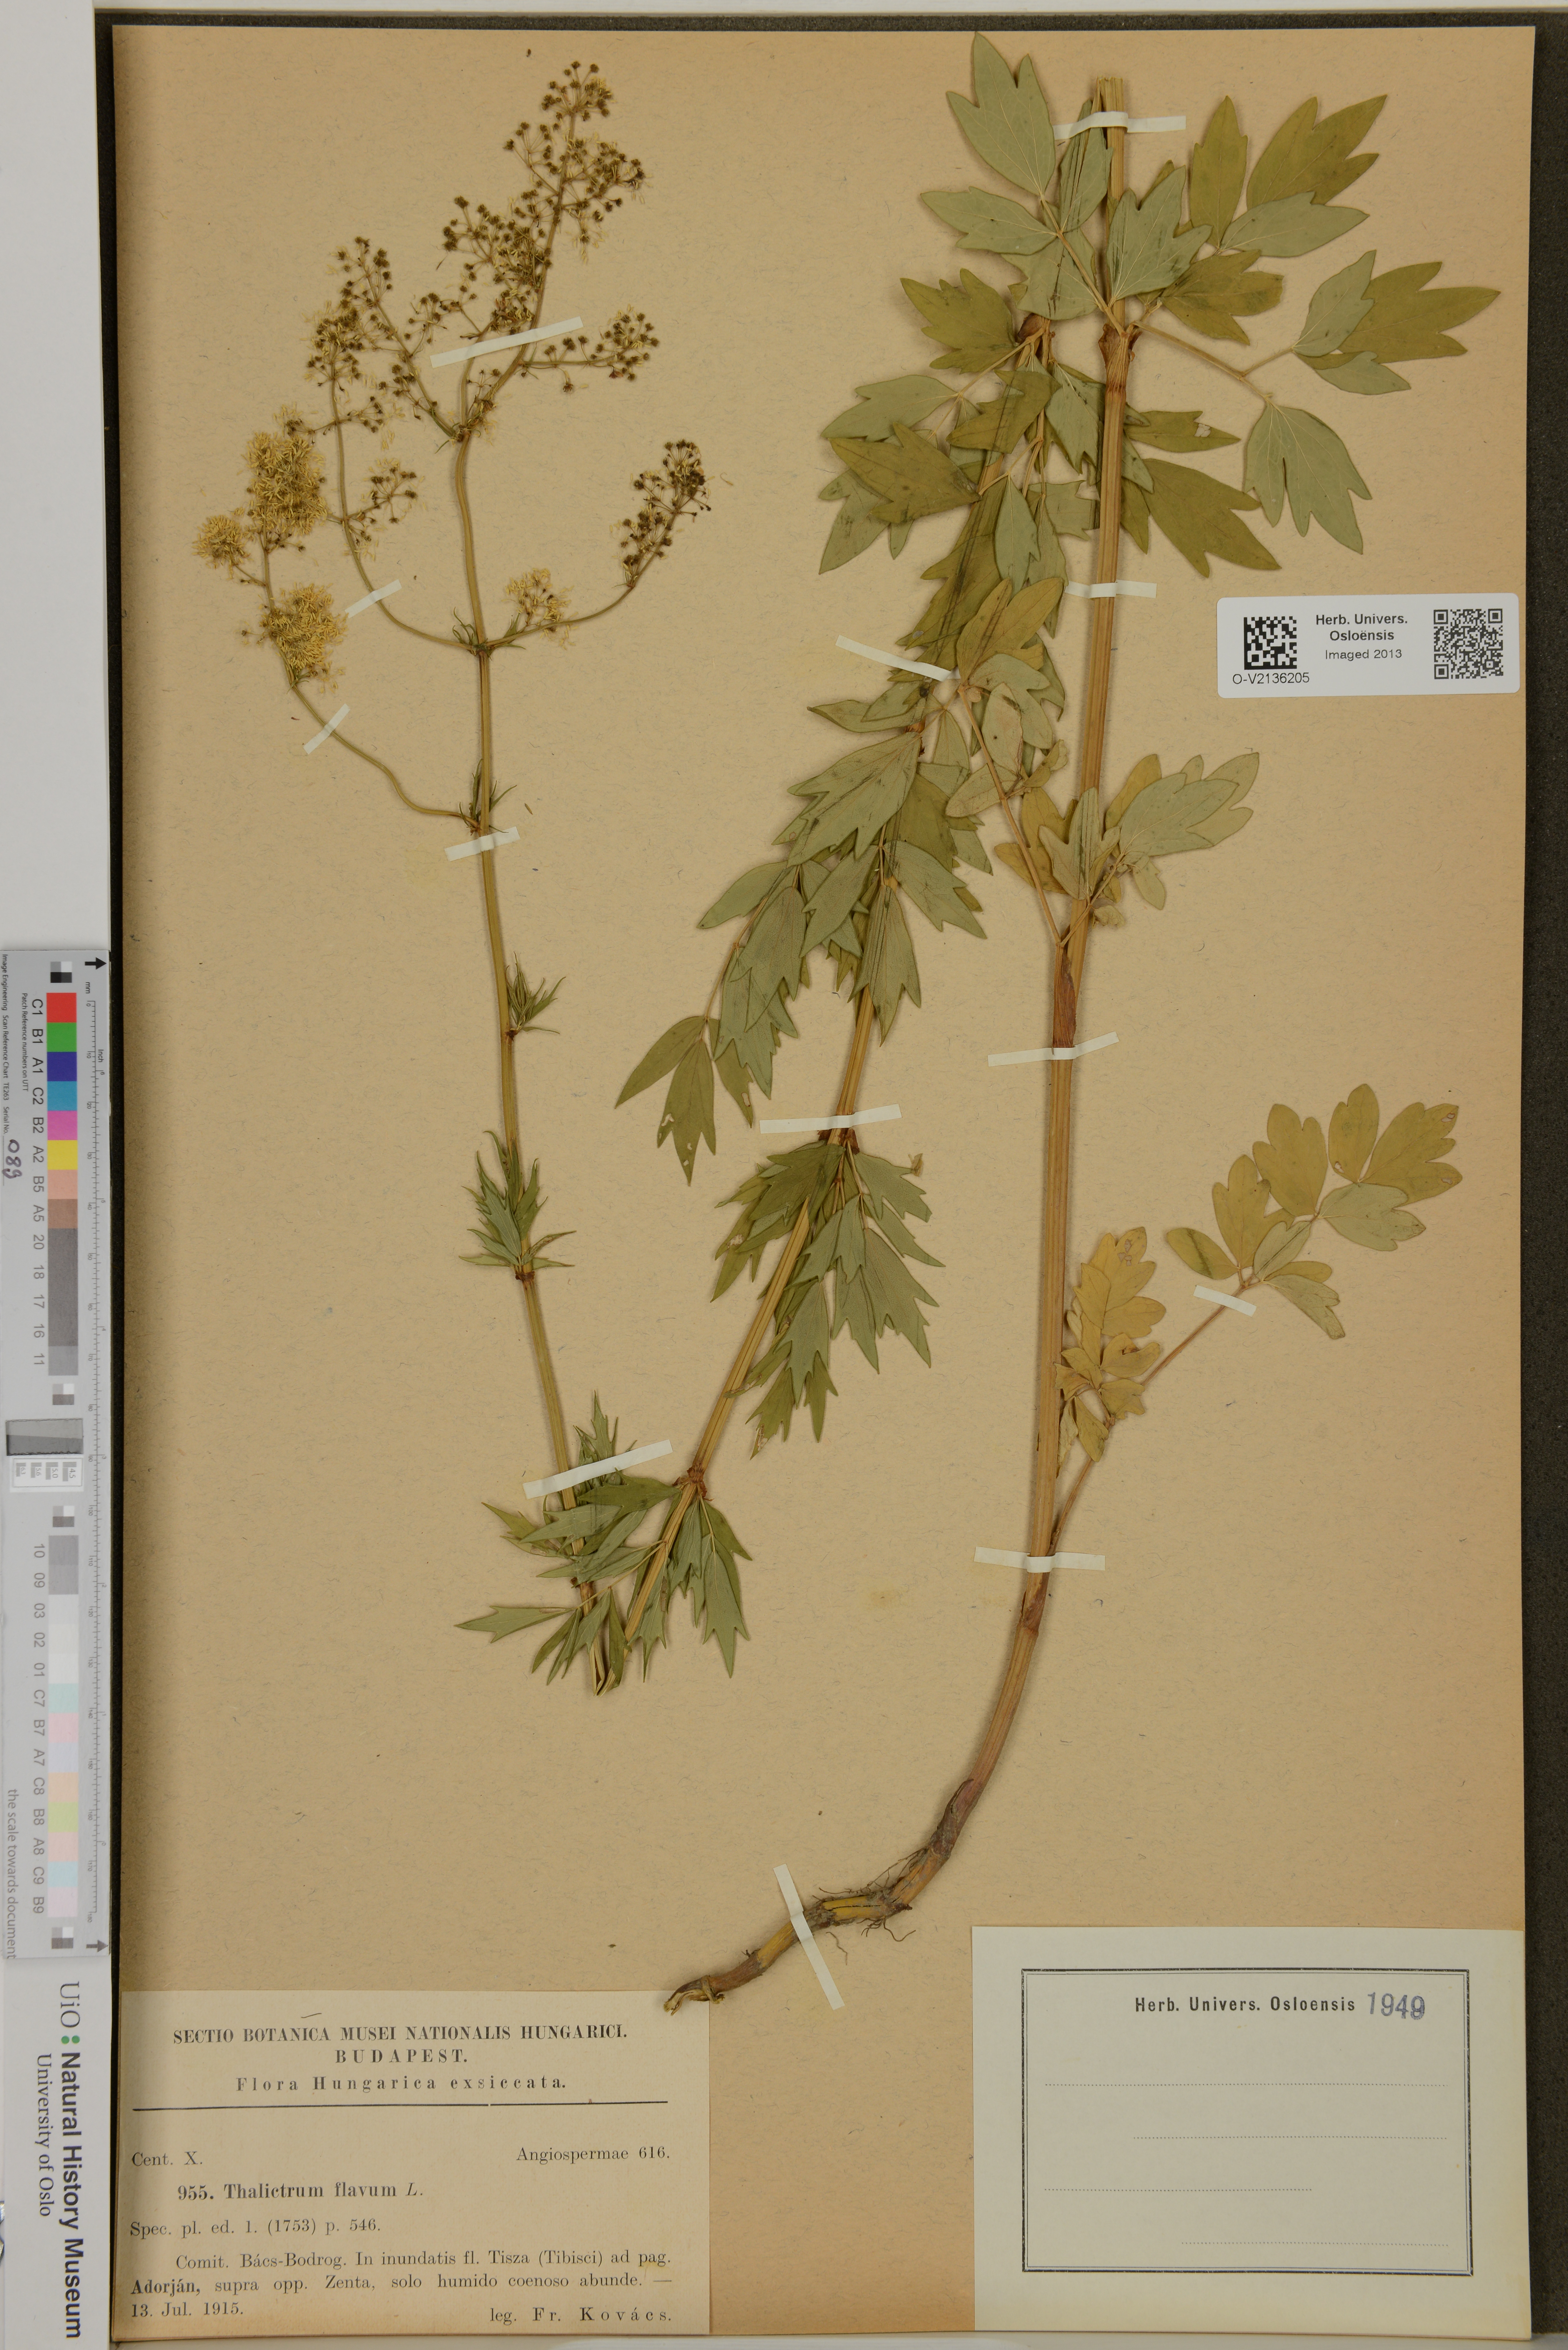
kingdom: Plantae
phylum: Tracheophyta
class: Magnoliopsida
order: Ranunculales
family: Ranunculaceae
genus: Thalictrum
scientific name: Thalictrum flavum
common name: Common meadow-rue
